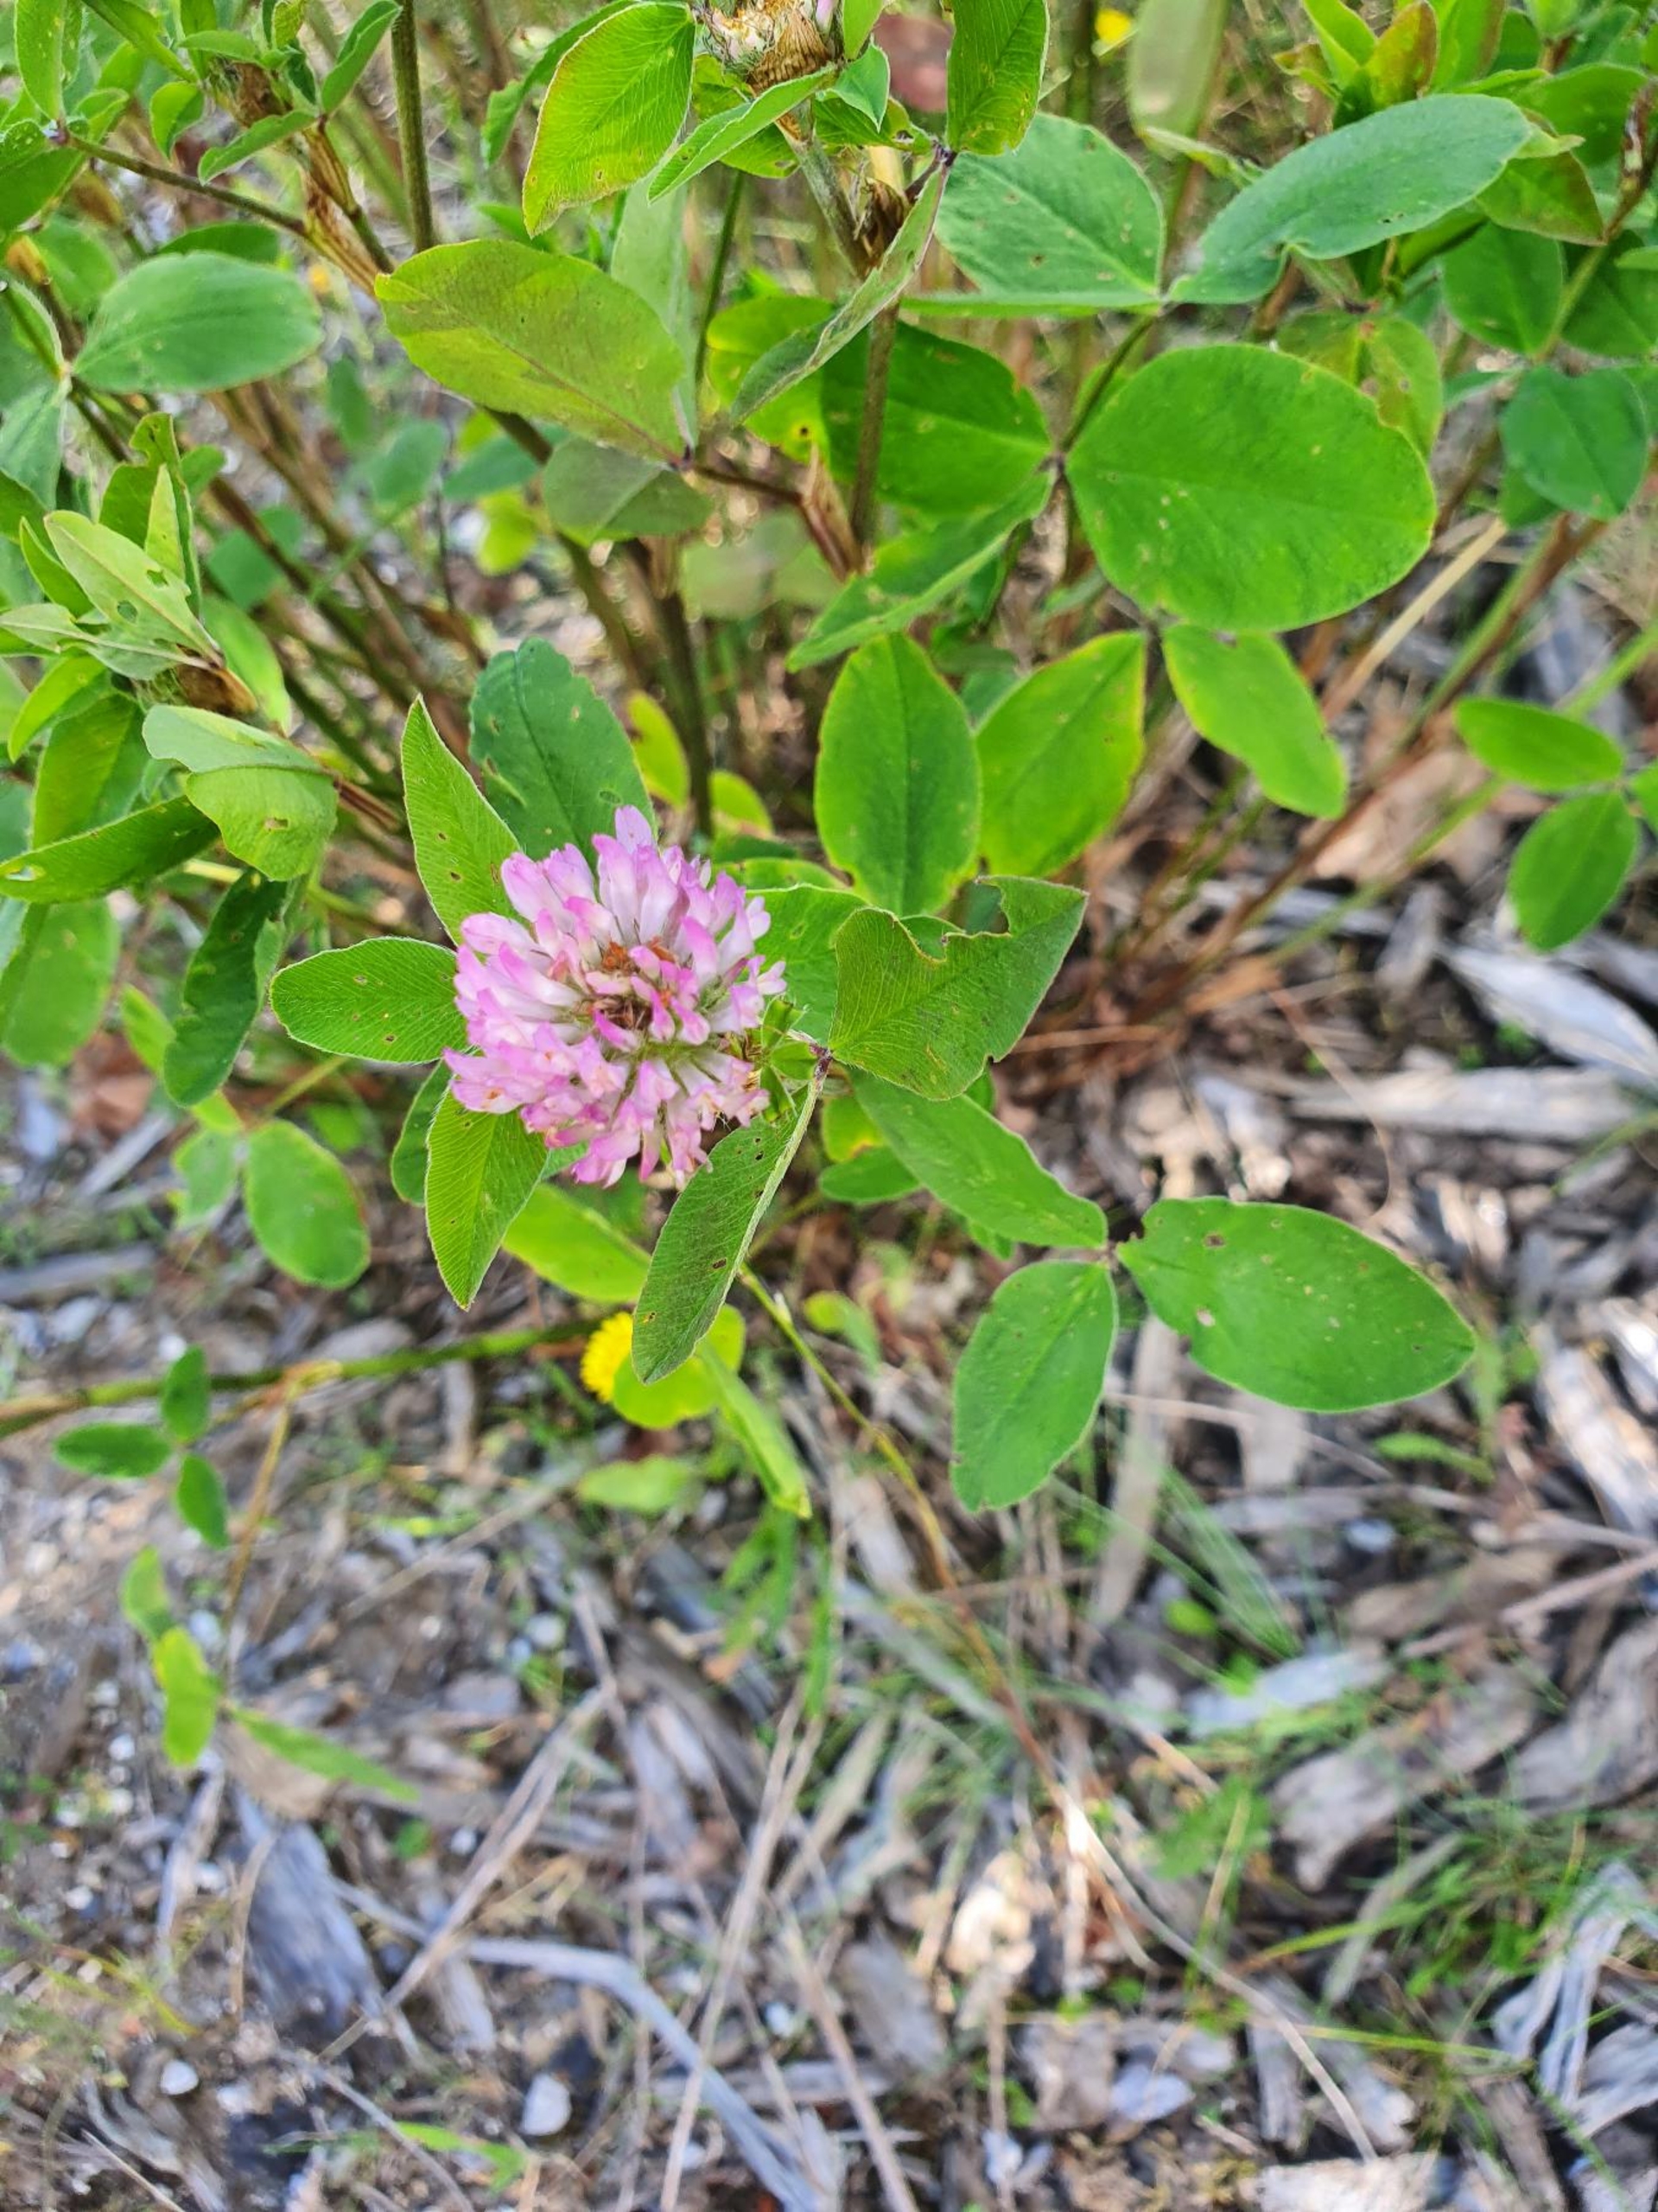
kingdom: Plantae
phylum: Tracheophyta
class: Magnoliopsida
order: Fabales
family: Fabaceae
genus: Trifolium
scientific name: Trifolium pratense
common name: Rød-kløver
